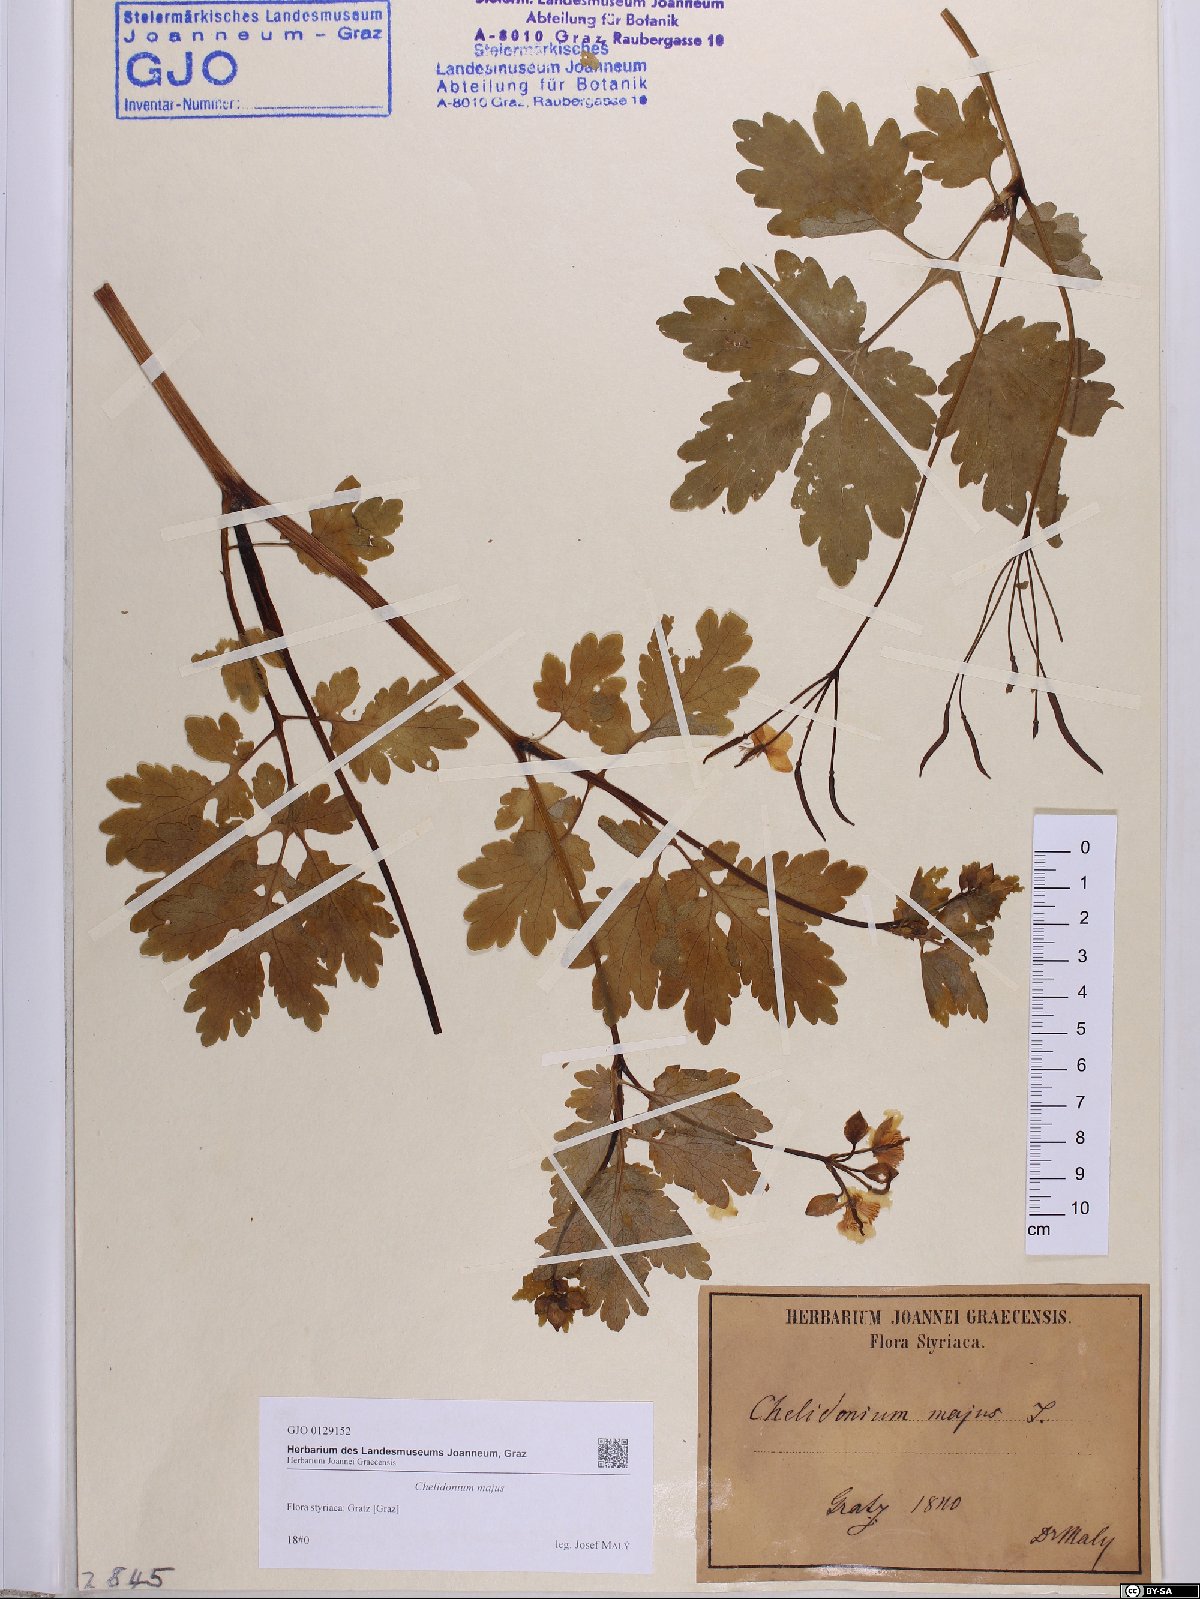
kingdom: Plantae
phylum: Tracheophyta
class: Magnoliopsida
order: Ranunculales
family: Papaveraceae
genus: Chelidonium
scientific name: Chelidonium majus
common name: Greater celandine
